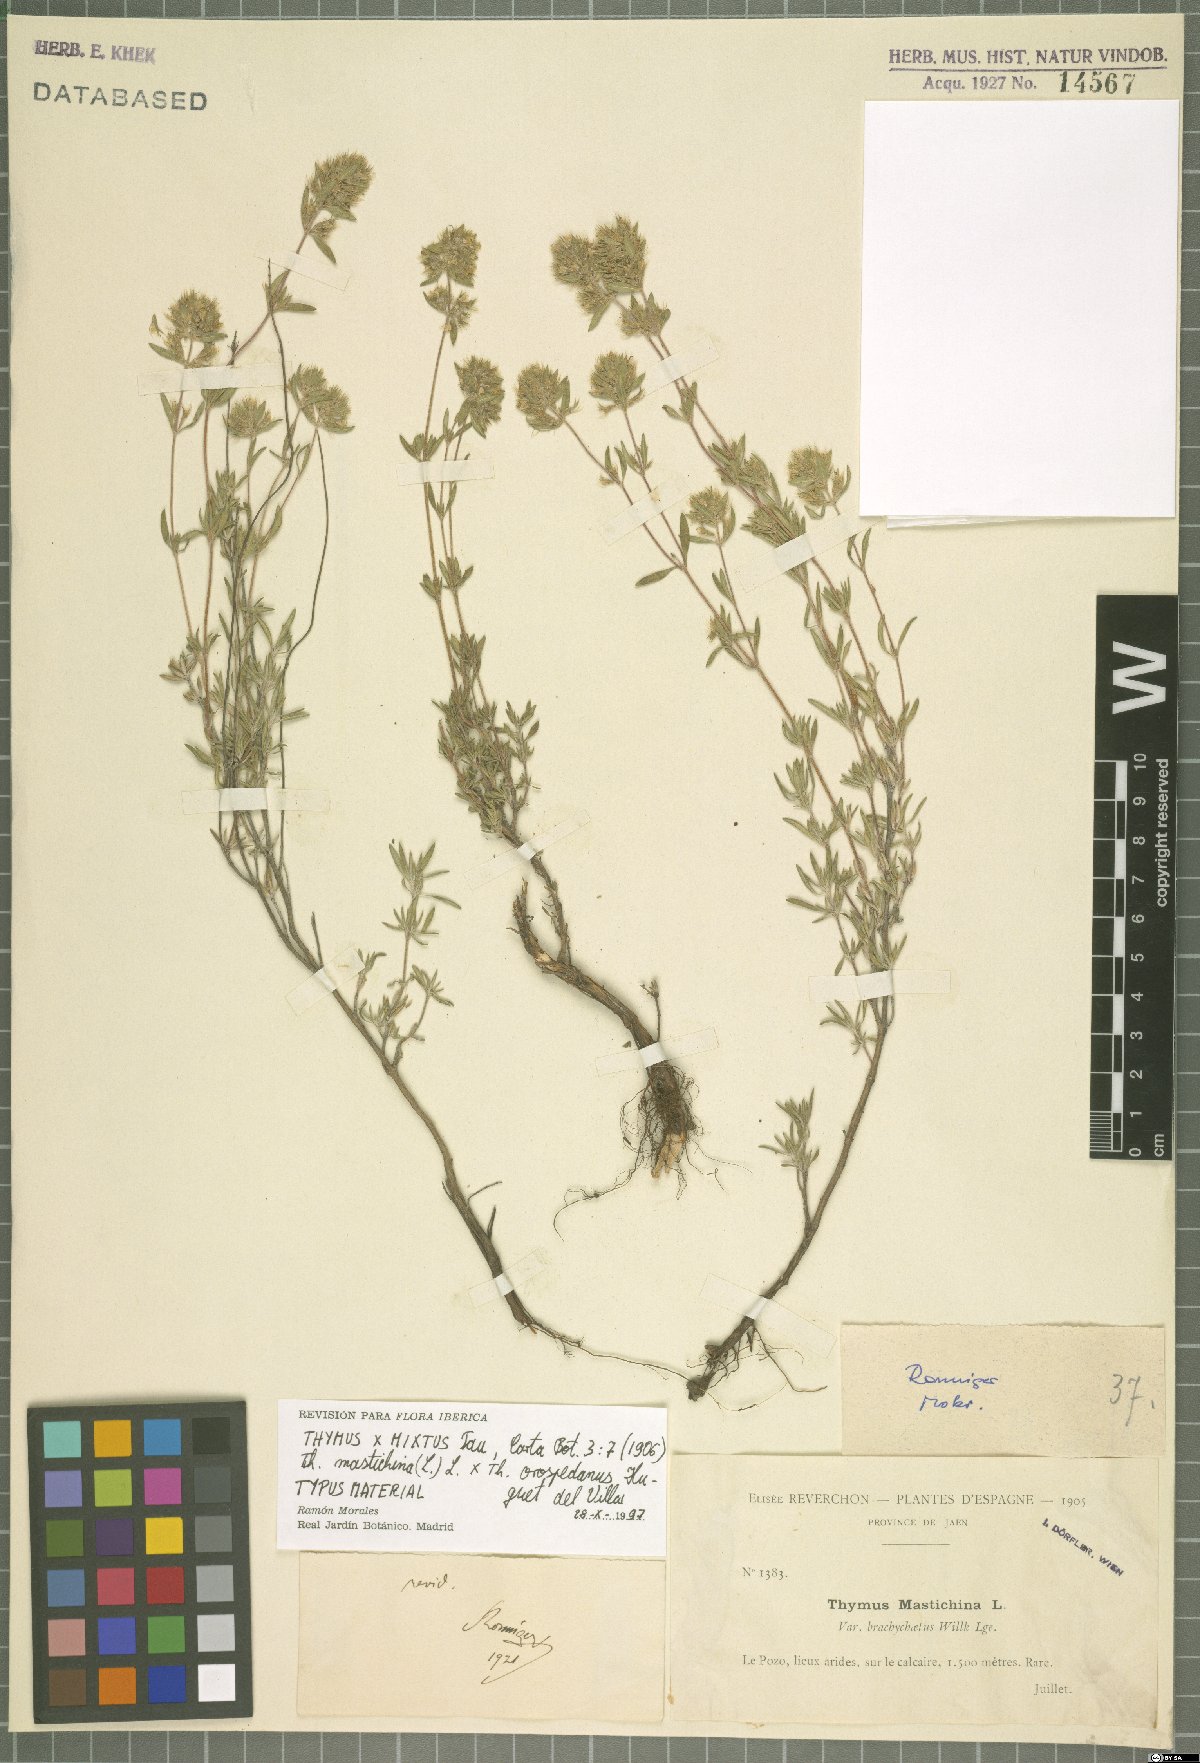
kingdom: Plantae
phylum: Tracheophyta
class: Magnoliopsida
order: Lamiales
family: Lamiaceae
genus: Thymus
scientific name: Thymus mixtus
